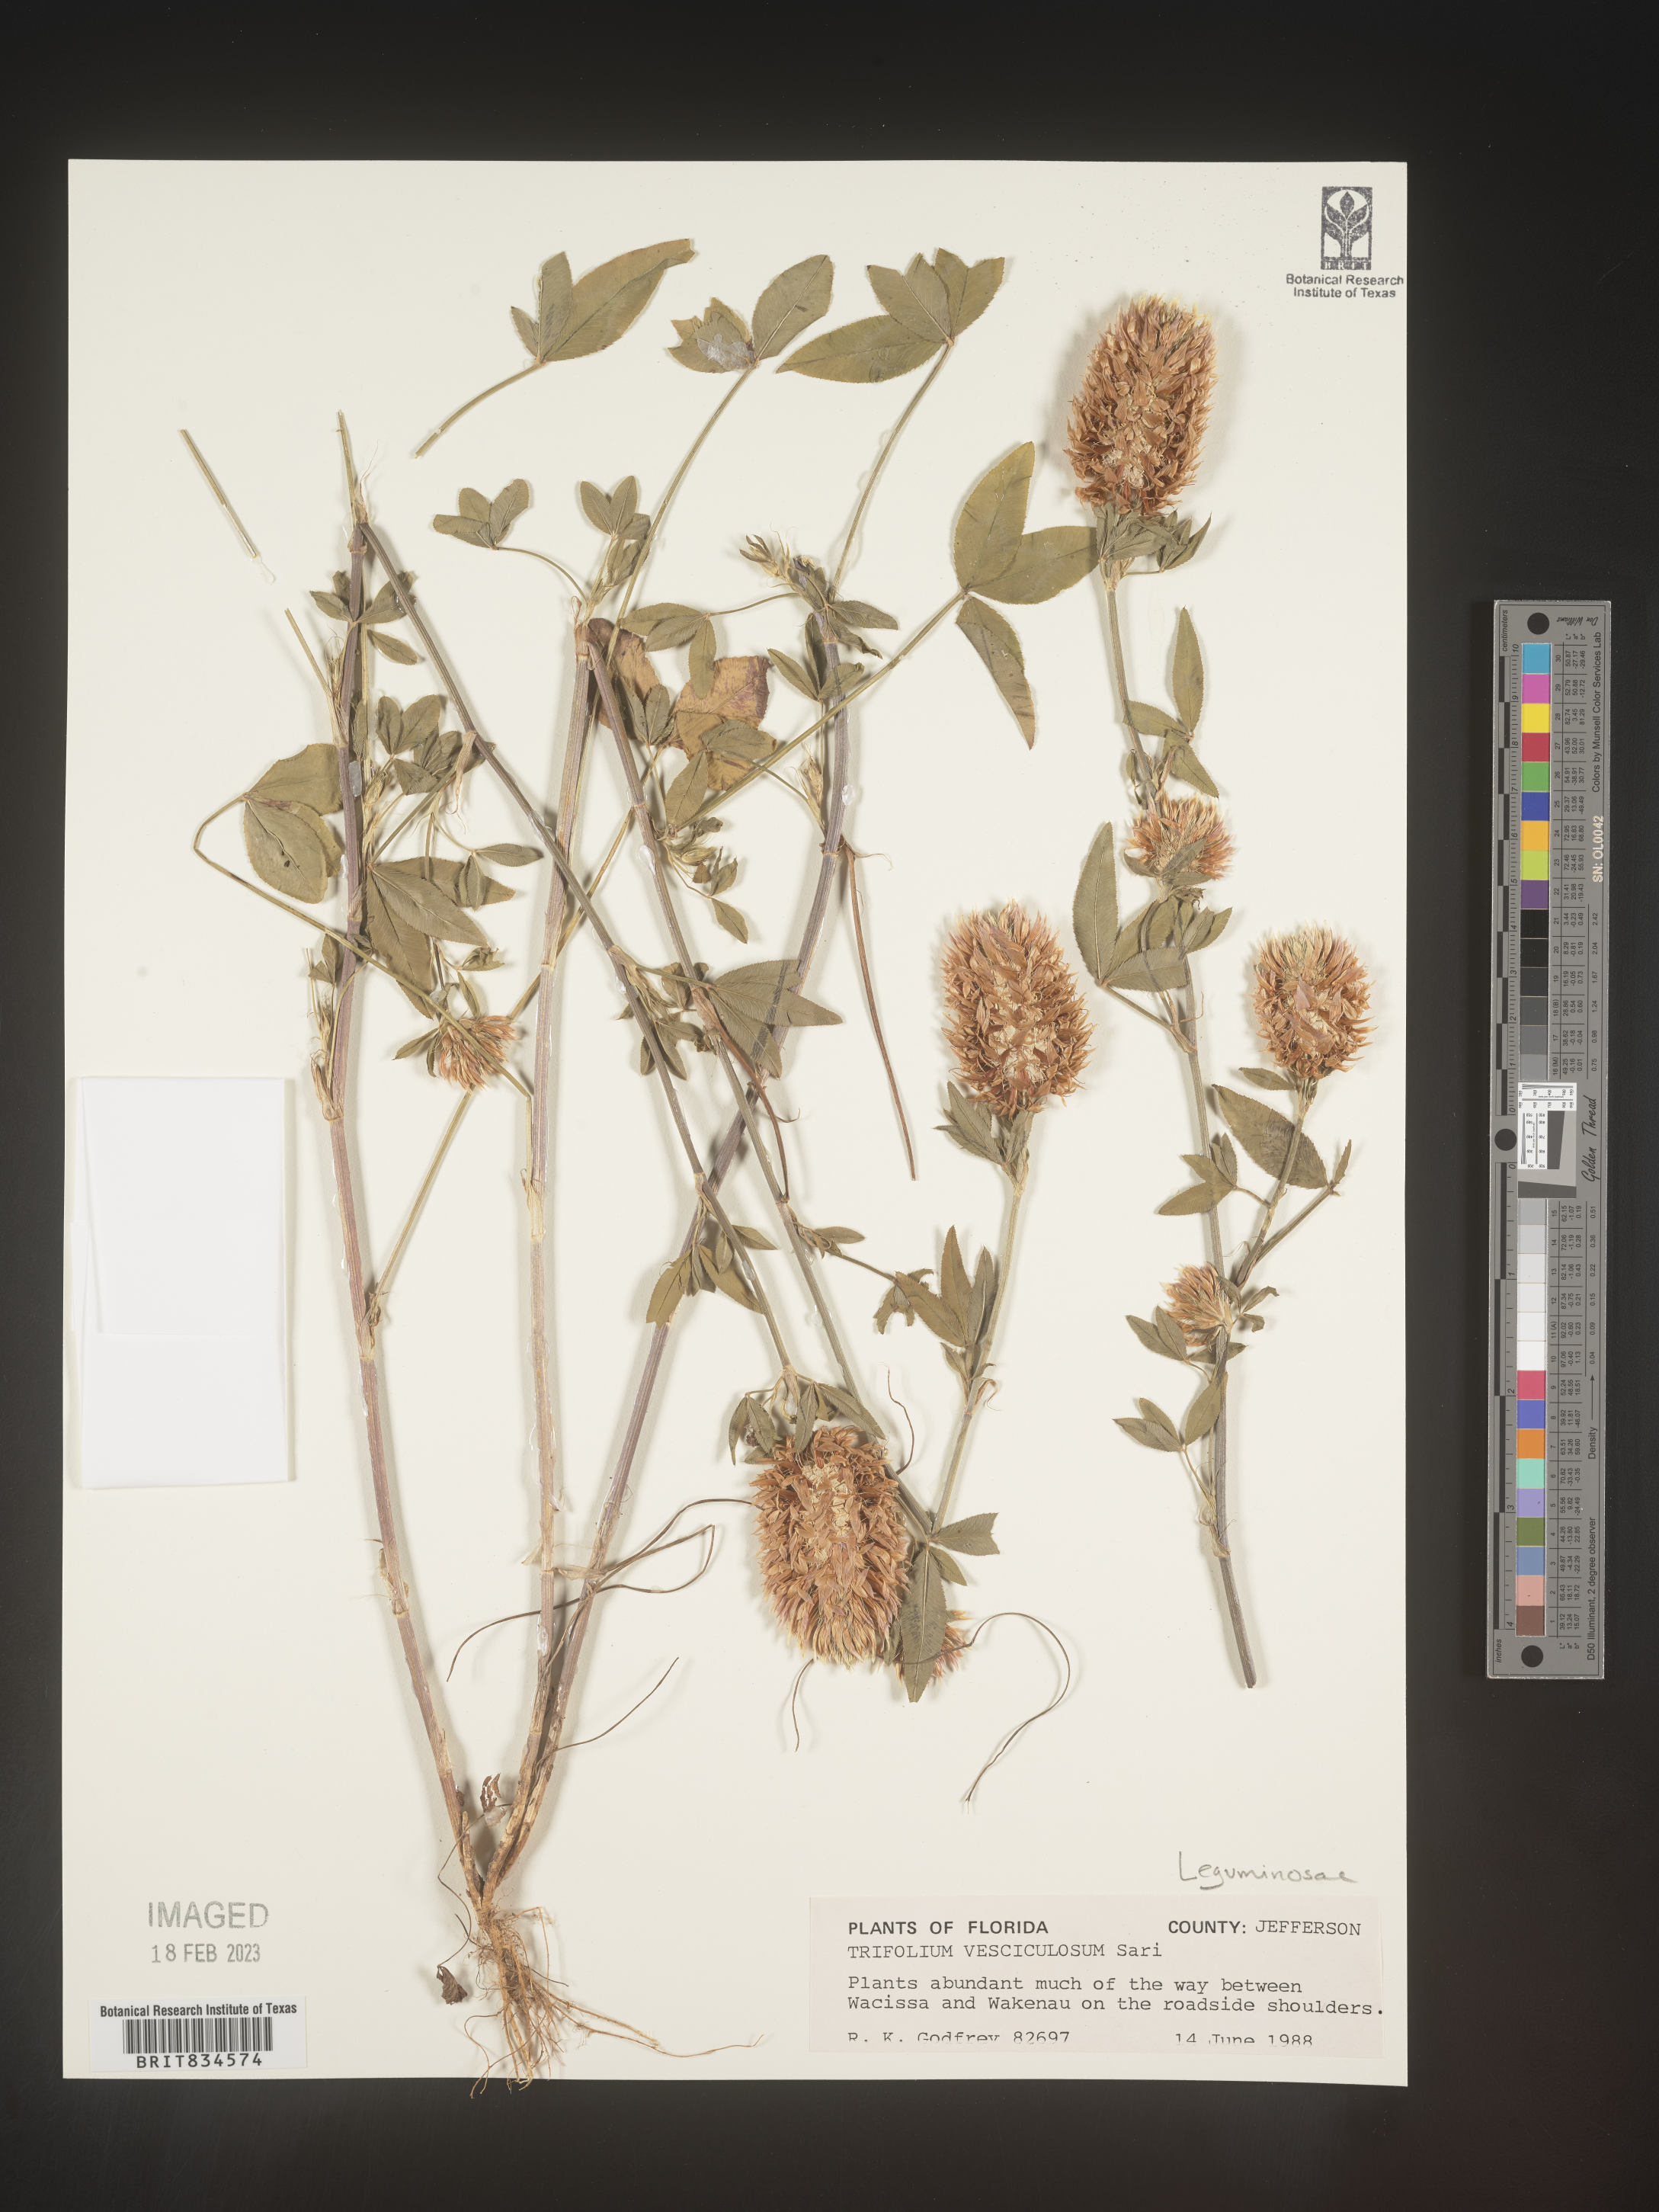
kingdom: Plantae
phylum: Tracheophyta
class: Magnoliopsida
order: Fabales
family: Fabaceae
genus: Trifolium
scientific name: Trifolium
